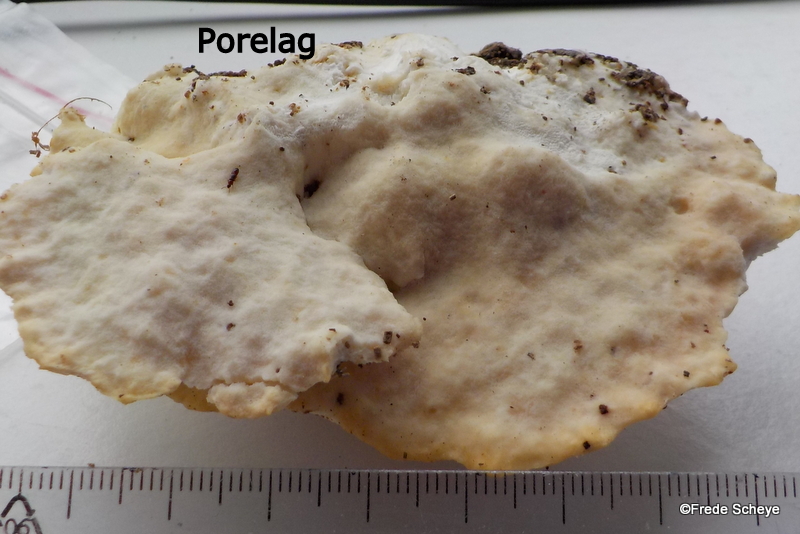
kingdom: Fungi
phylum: Basidiomycota
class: Agaricomycetes
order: Polyporales
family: Incrustoporiaceae
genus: Tyromyces
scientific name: Tyromyces lacteus
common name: mælkehvid kødporesvamp
